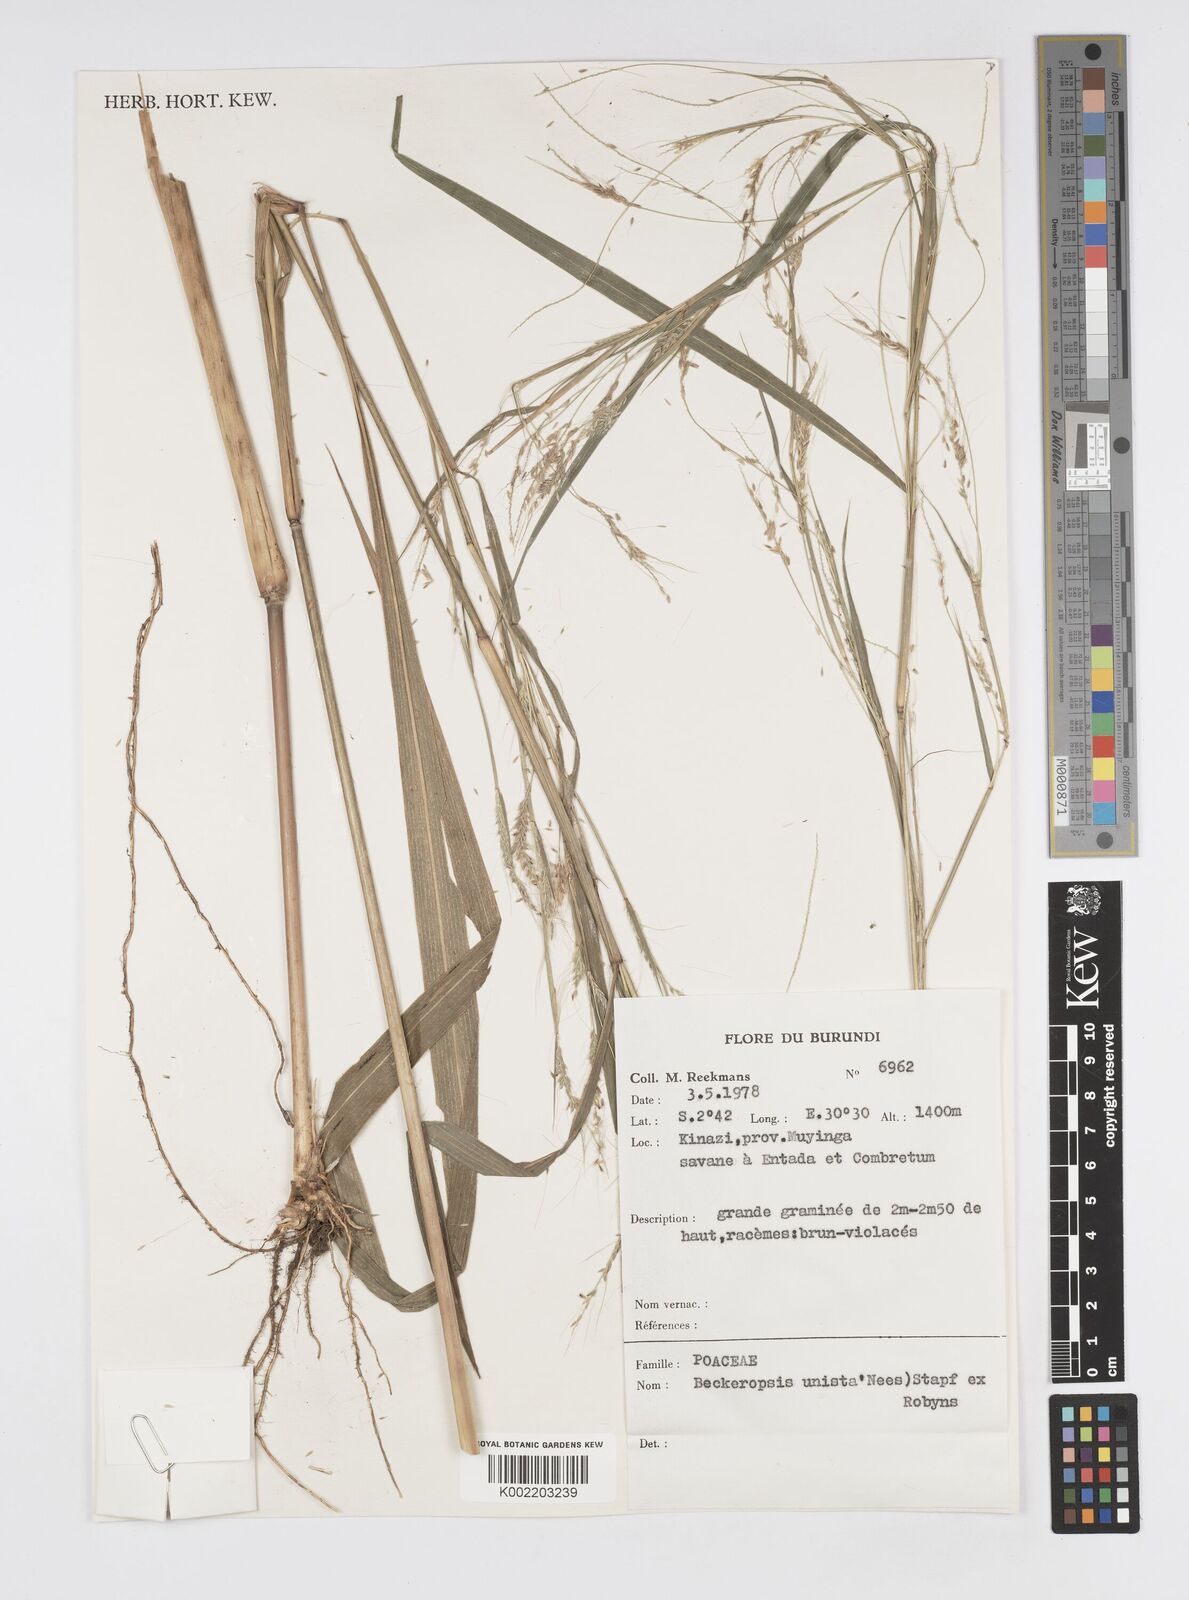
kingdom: Plantae
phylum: Tracheophyta
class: Liliopsida
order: Poales
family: Poaceae
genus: Cenchrus
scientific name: Cenchrus unisetus
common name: Natal grass
